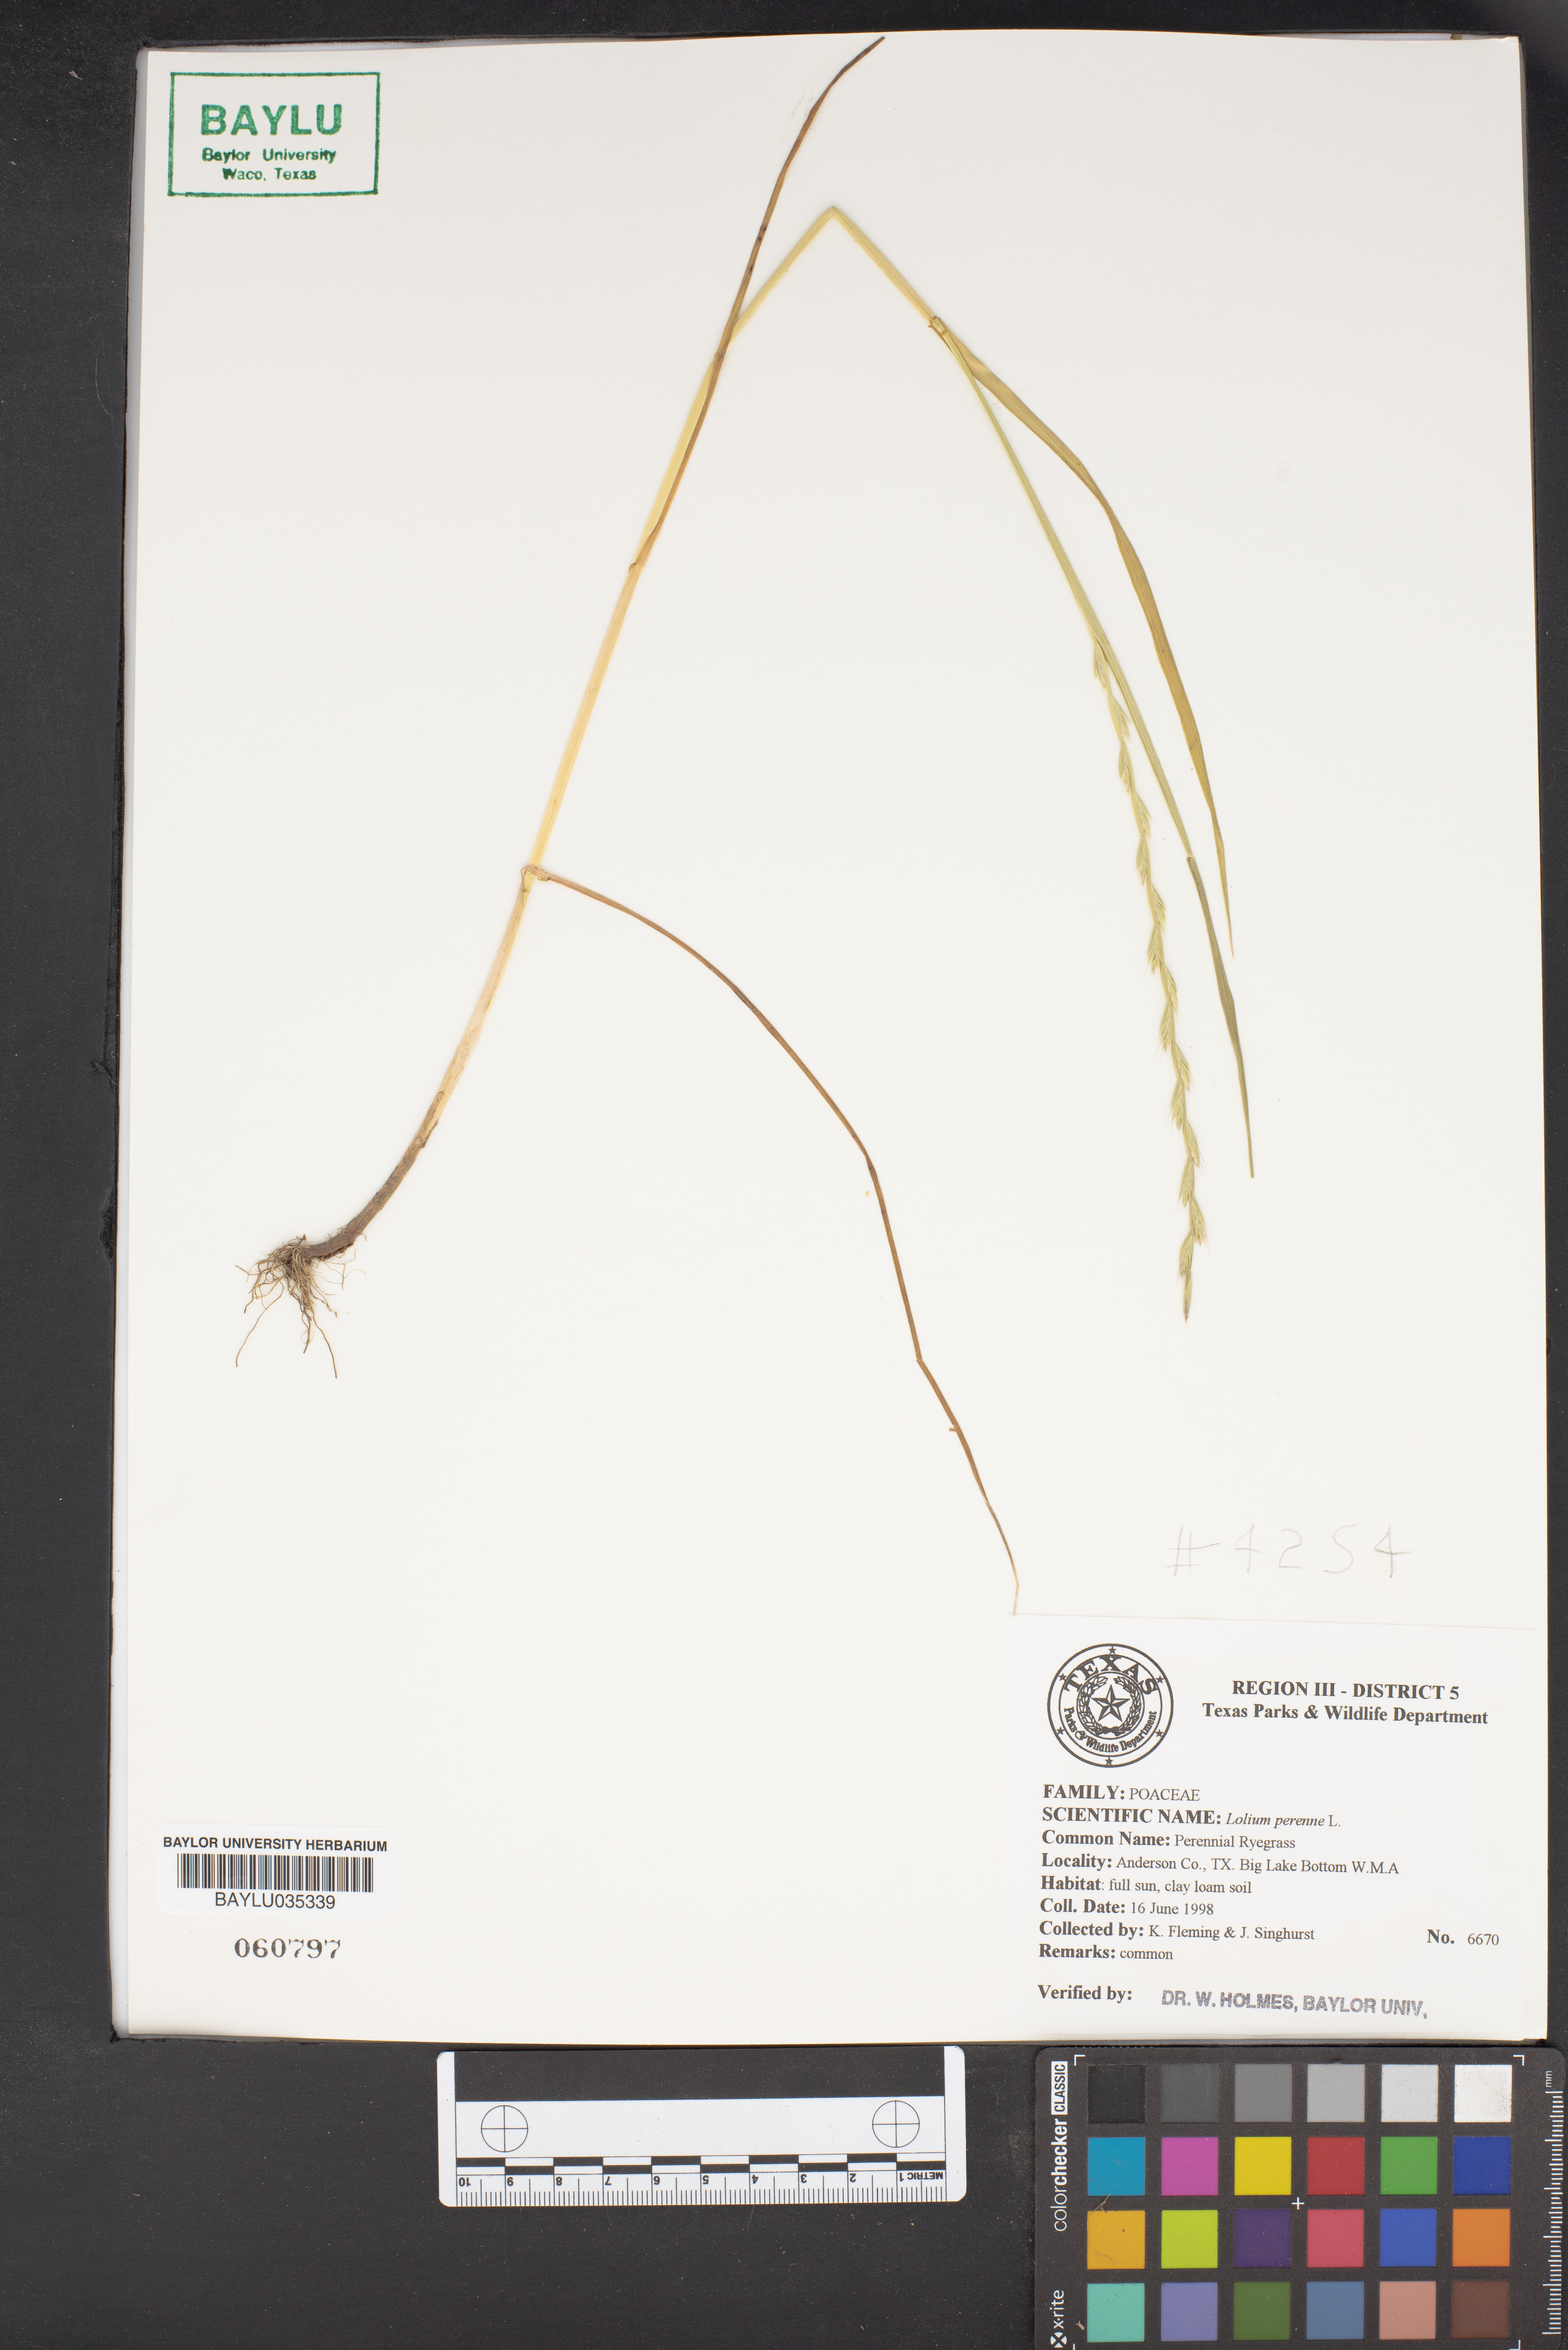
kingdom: Plantae
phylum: Tracheophyta
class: Liliopsida
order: Poales
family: Poaceae
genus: Lolium
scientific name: Lolium perenne
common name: Perennial ryegrass
